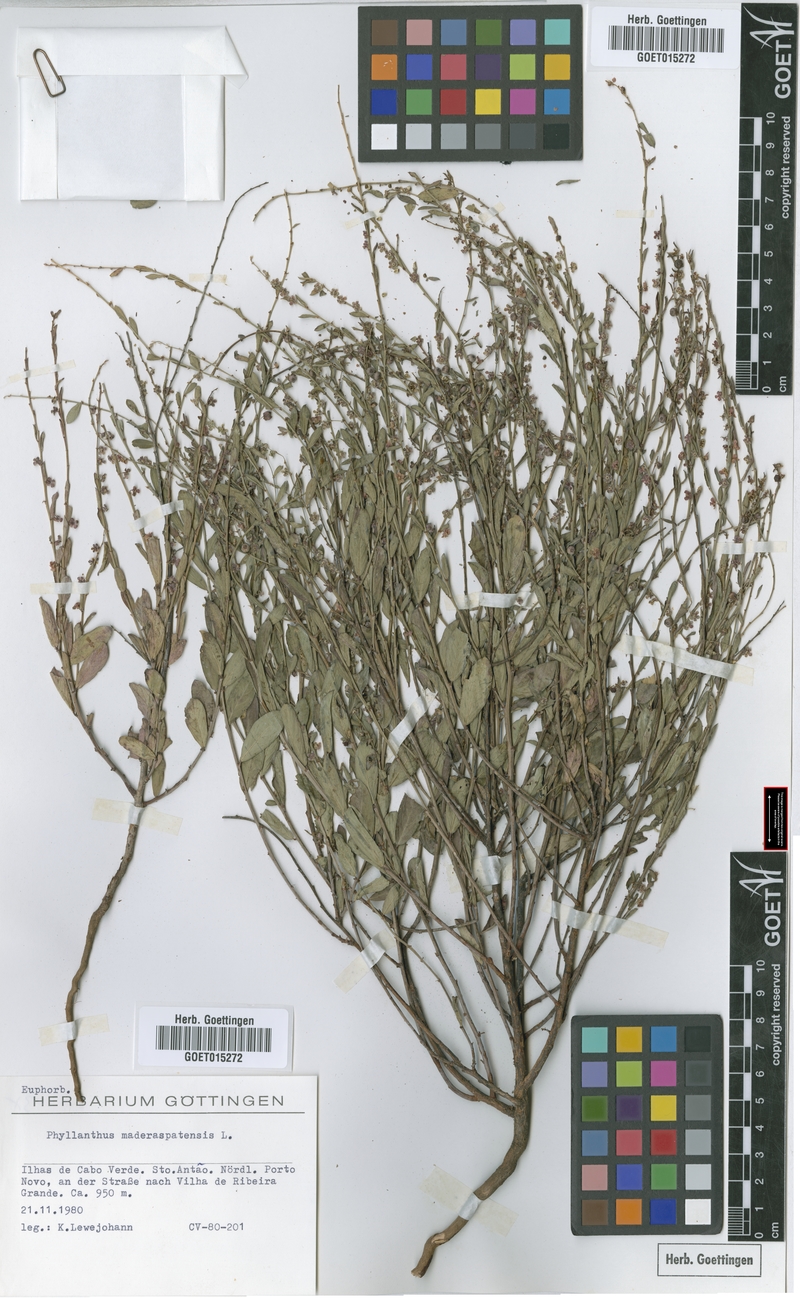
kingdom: Plantae
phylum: Tracheophyta
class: Magnoliopsida
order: Malpighiales
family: Phyllanthaceae
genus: Phyllanthus
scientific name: Phyllanthus maderaspatensis
